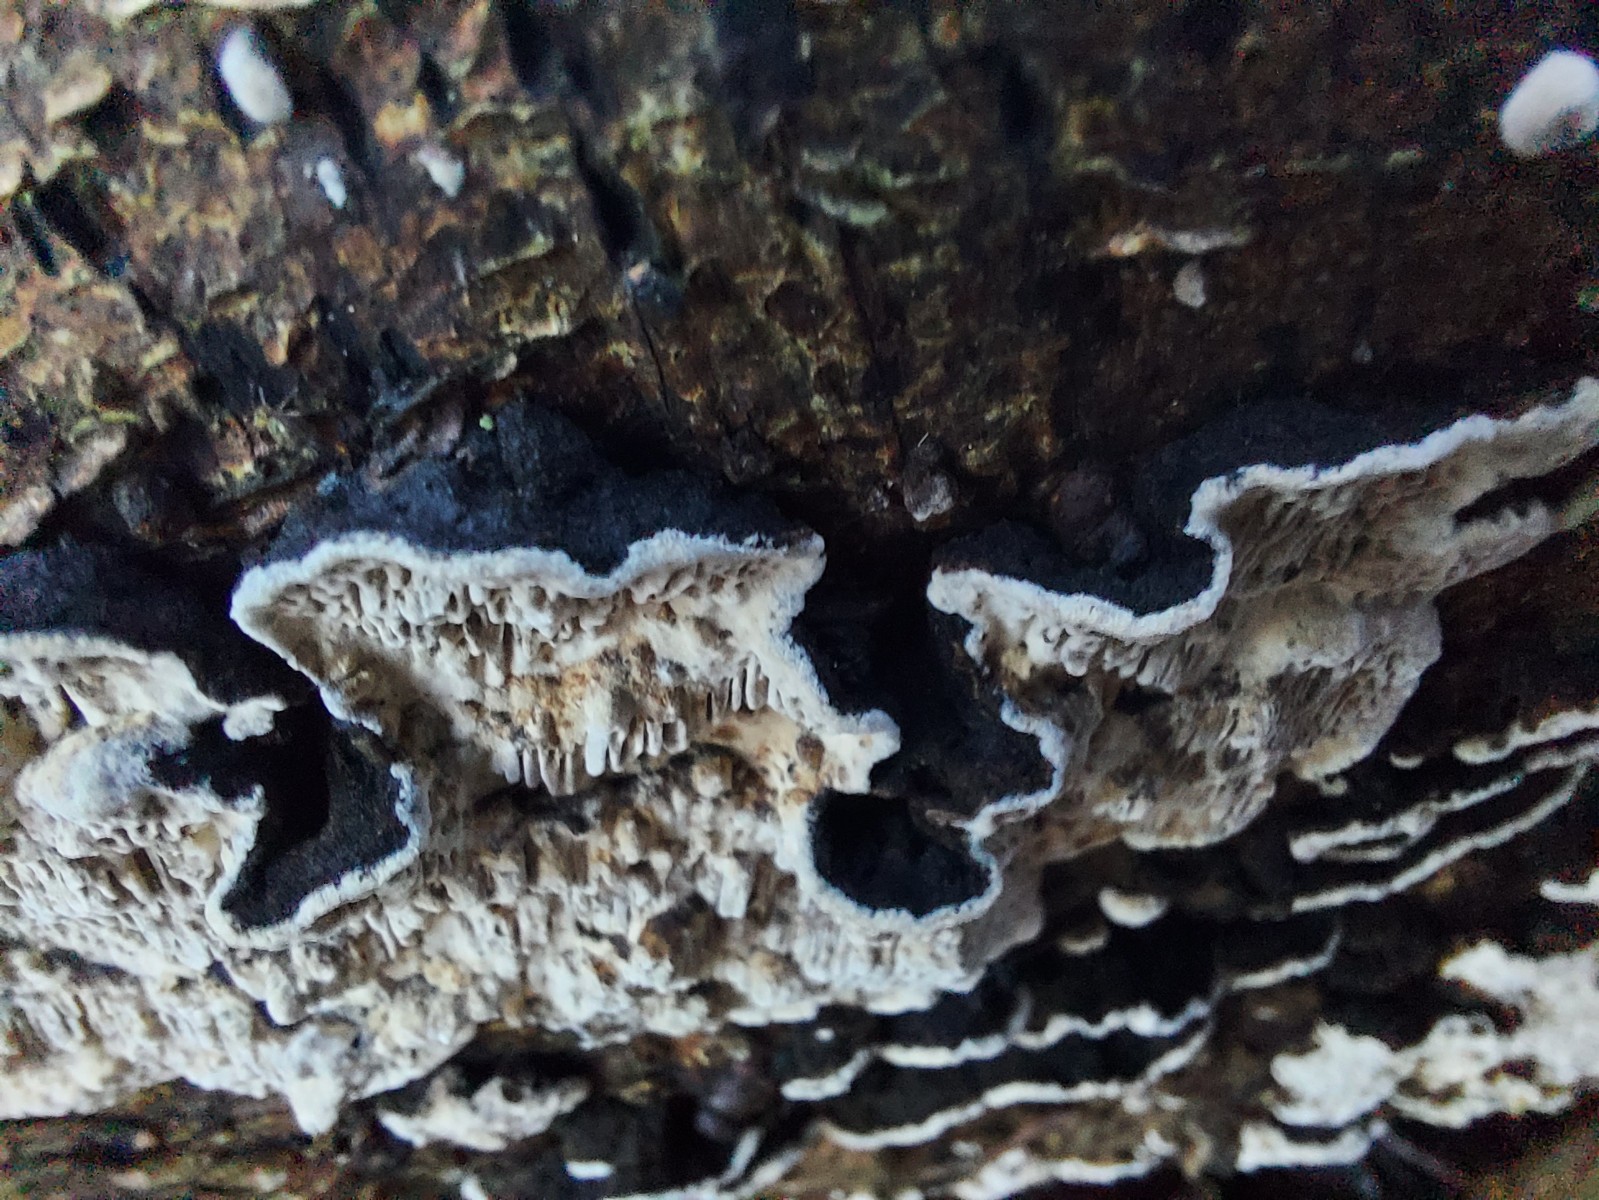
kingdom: Fungi
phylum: Basidiomycota
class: Agaricomycetes
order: Polyporales
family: Polyporaceae
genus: Podofomes
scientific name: Podofomes mollis
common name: blød begporesvamp
